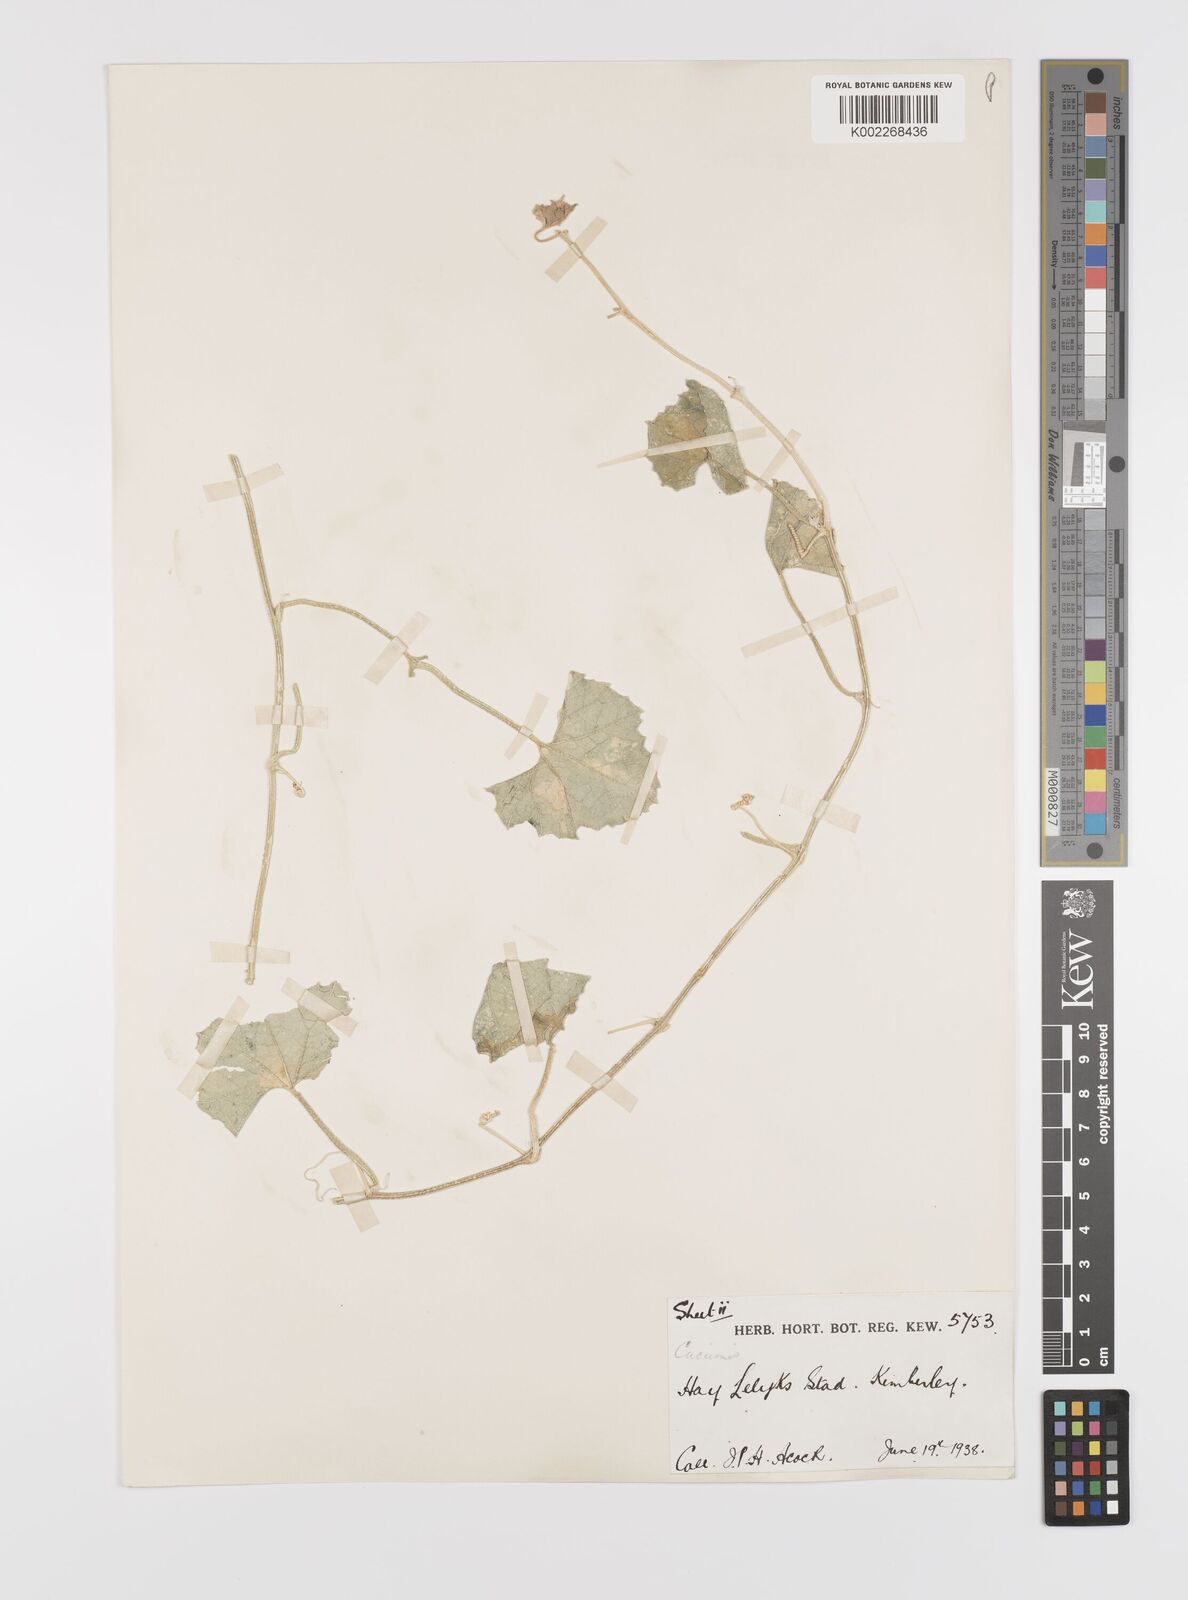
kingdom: Plantae
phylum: Tracheophyta
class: Magnoliopsida
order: Cucurbitales
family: Cucurbitaceae
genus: Cucumis
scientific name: Cucumis sagittatus
